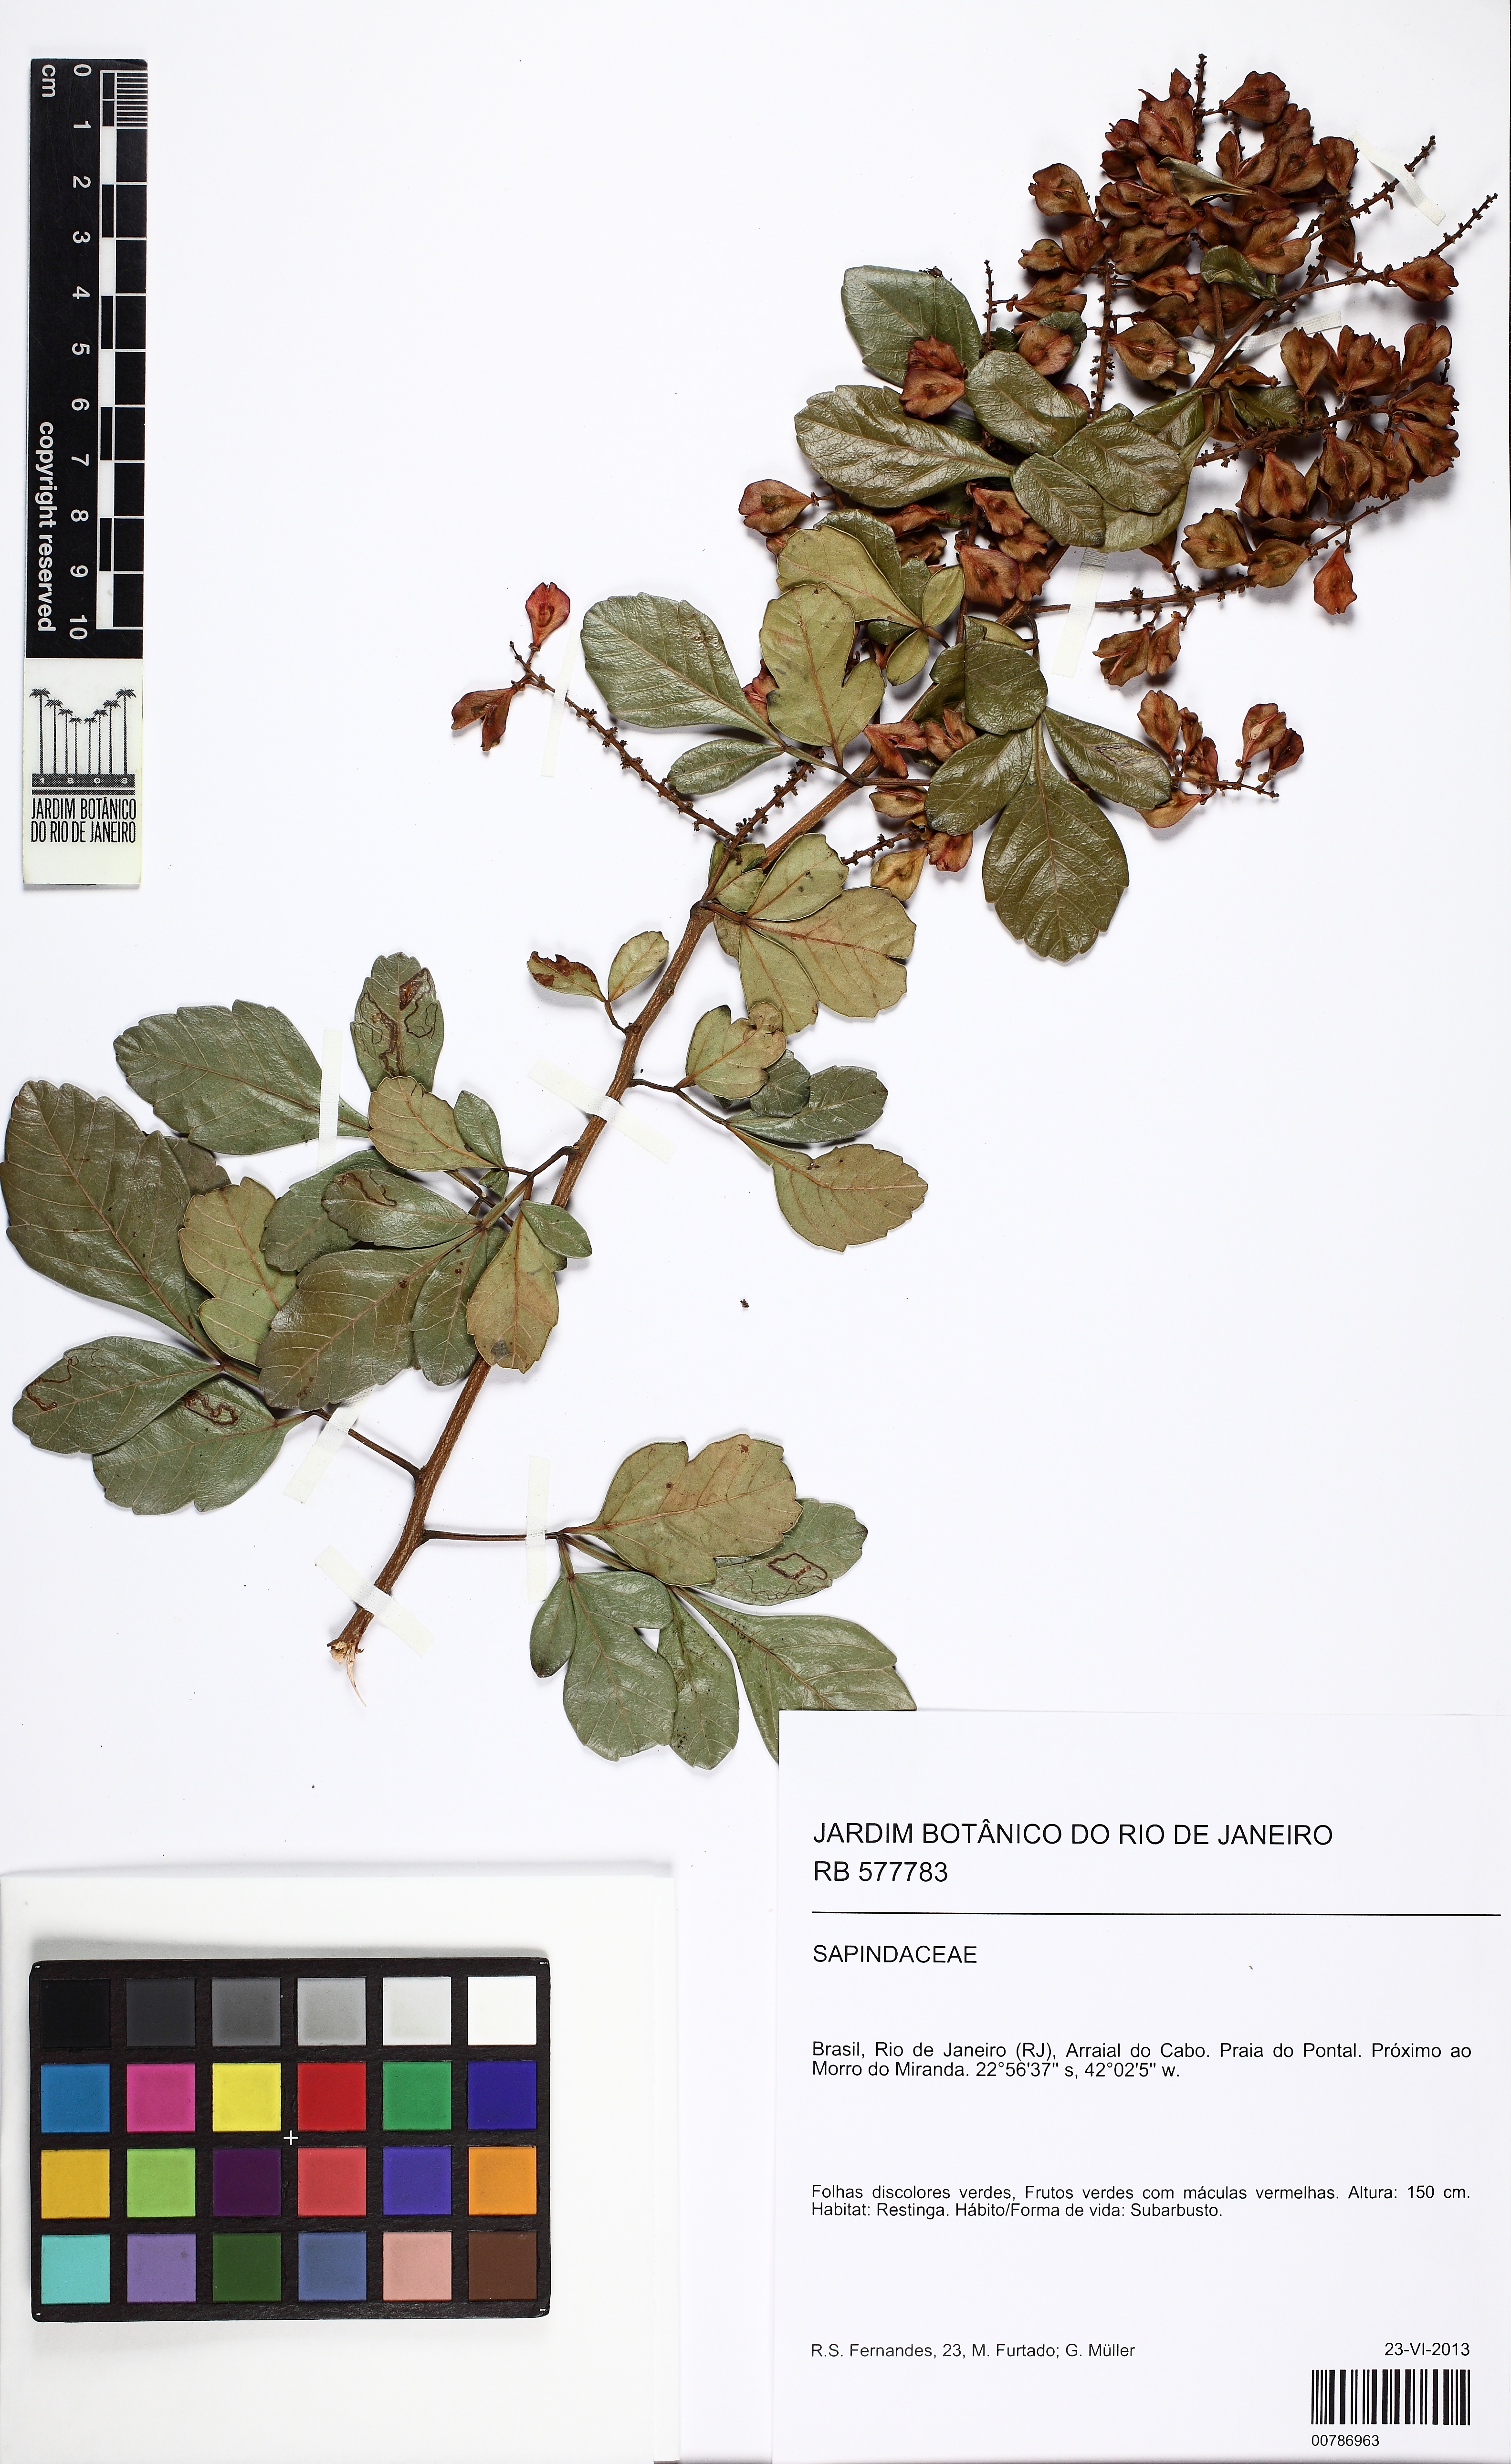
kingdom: Plantae
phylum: Tracheophyta
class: Magnoliopsida
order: Sapindales
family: Sapindaceae
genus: Paullinia
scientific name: Paullinia trigonia
